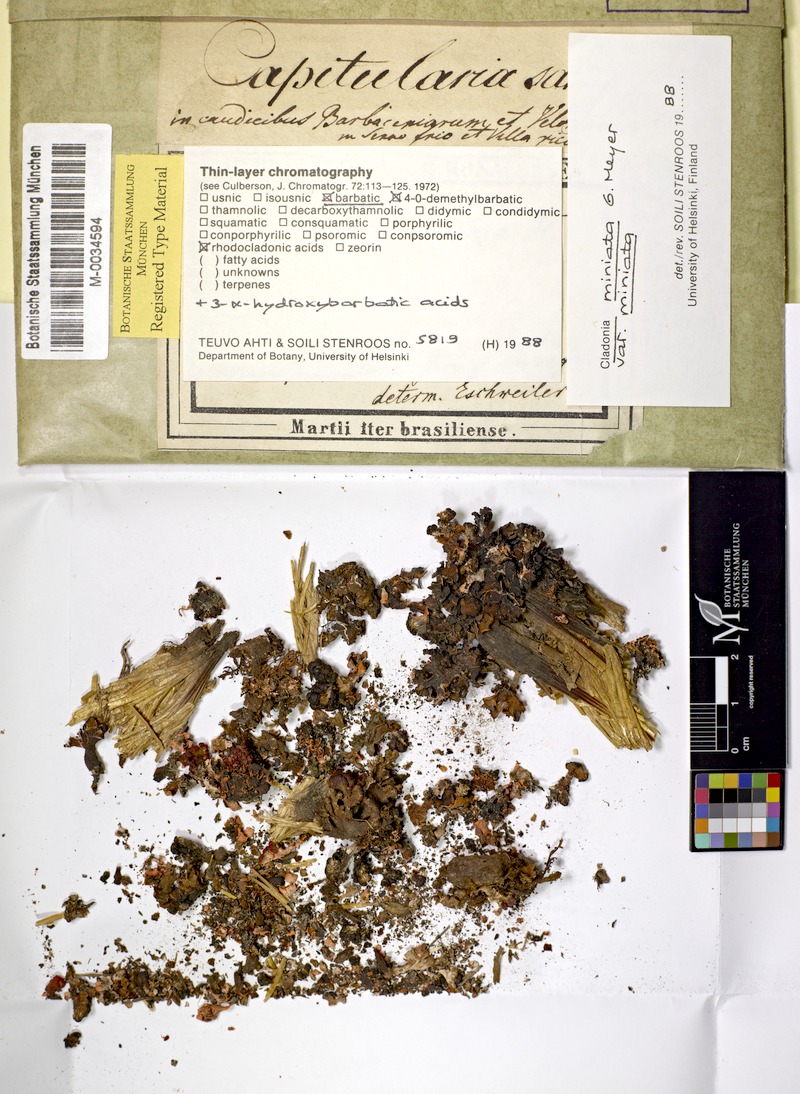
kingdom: Fungi
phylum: Ascomycota
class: Lecanoromycetes
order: Lecanorales
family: Cladoniaceae
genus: Cladonia
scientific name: Cladonia miniata
